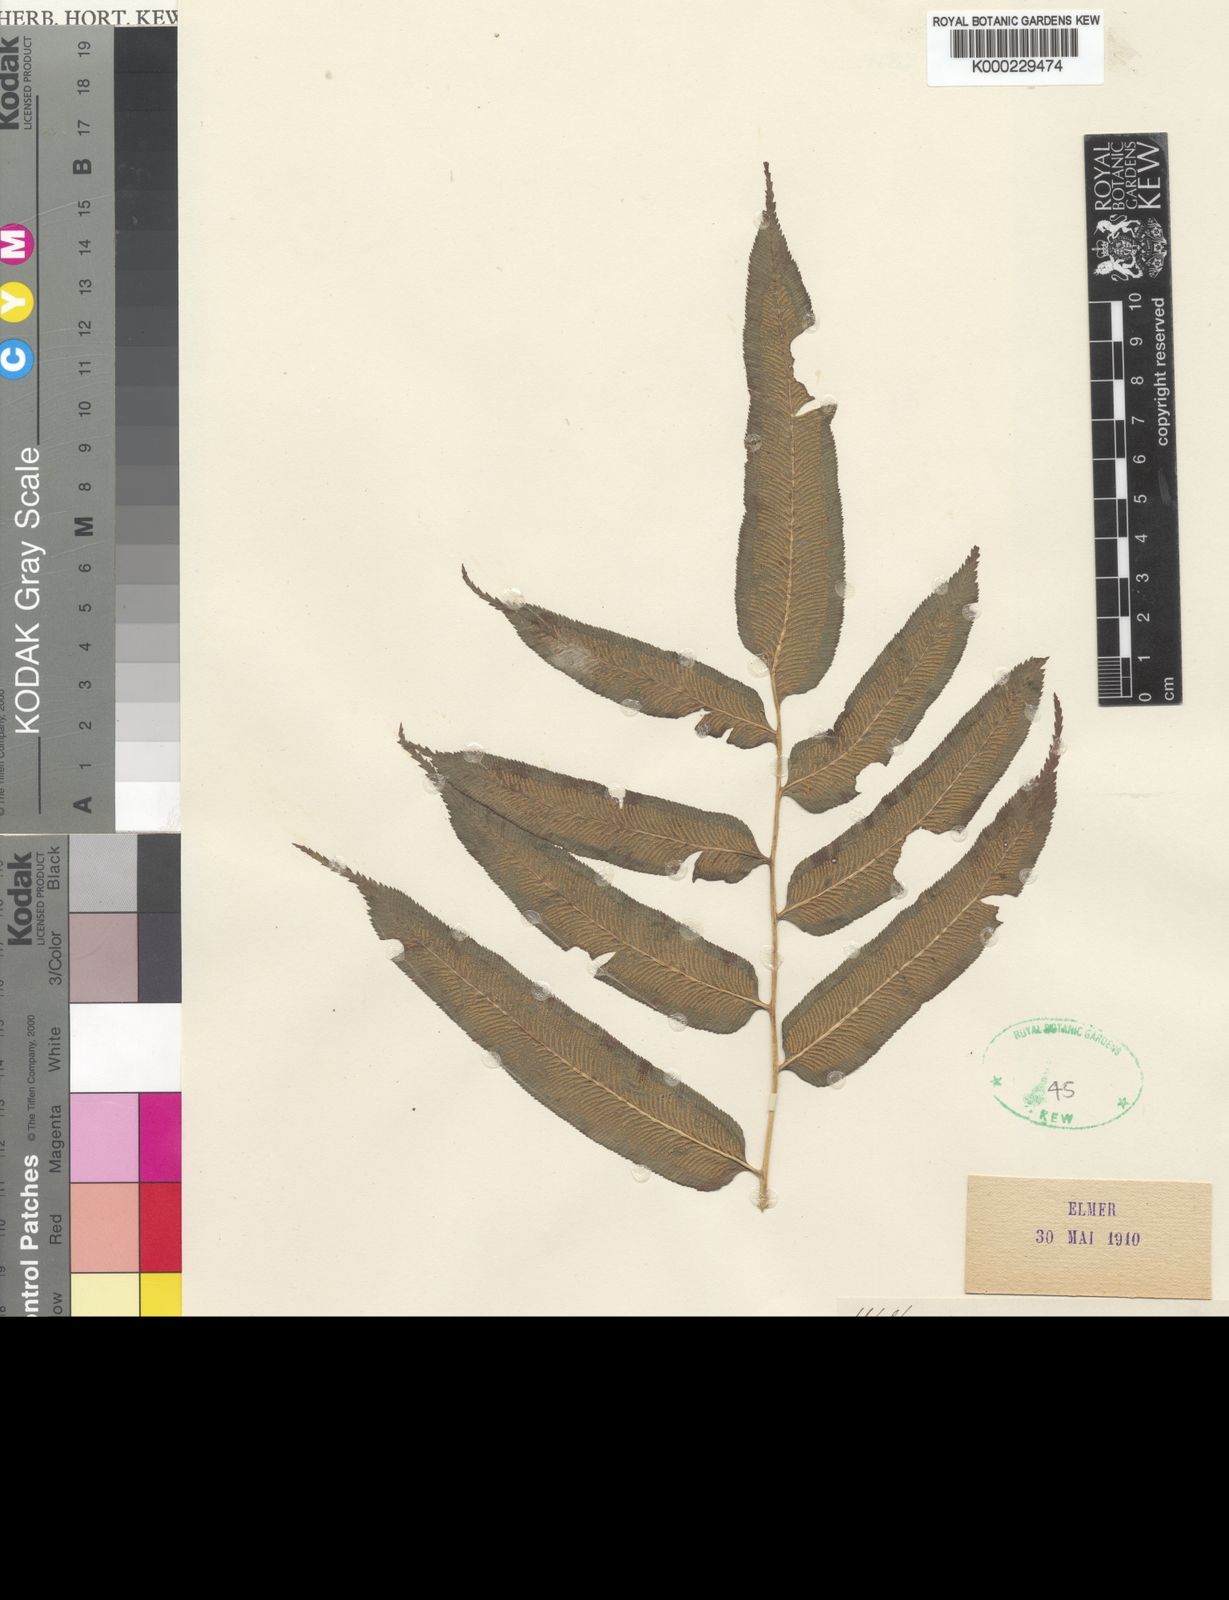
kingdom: Plantae
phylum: Tracheophyta
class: Polypodiopsida
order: Polypodiales
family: Pteridaceae
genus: Coniogramme
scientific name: Coniogramme serrulata
